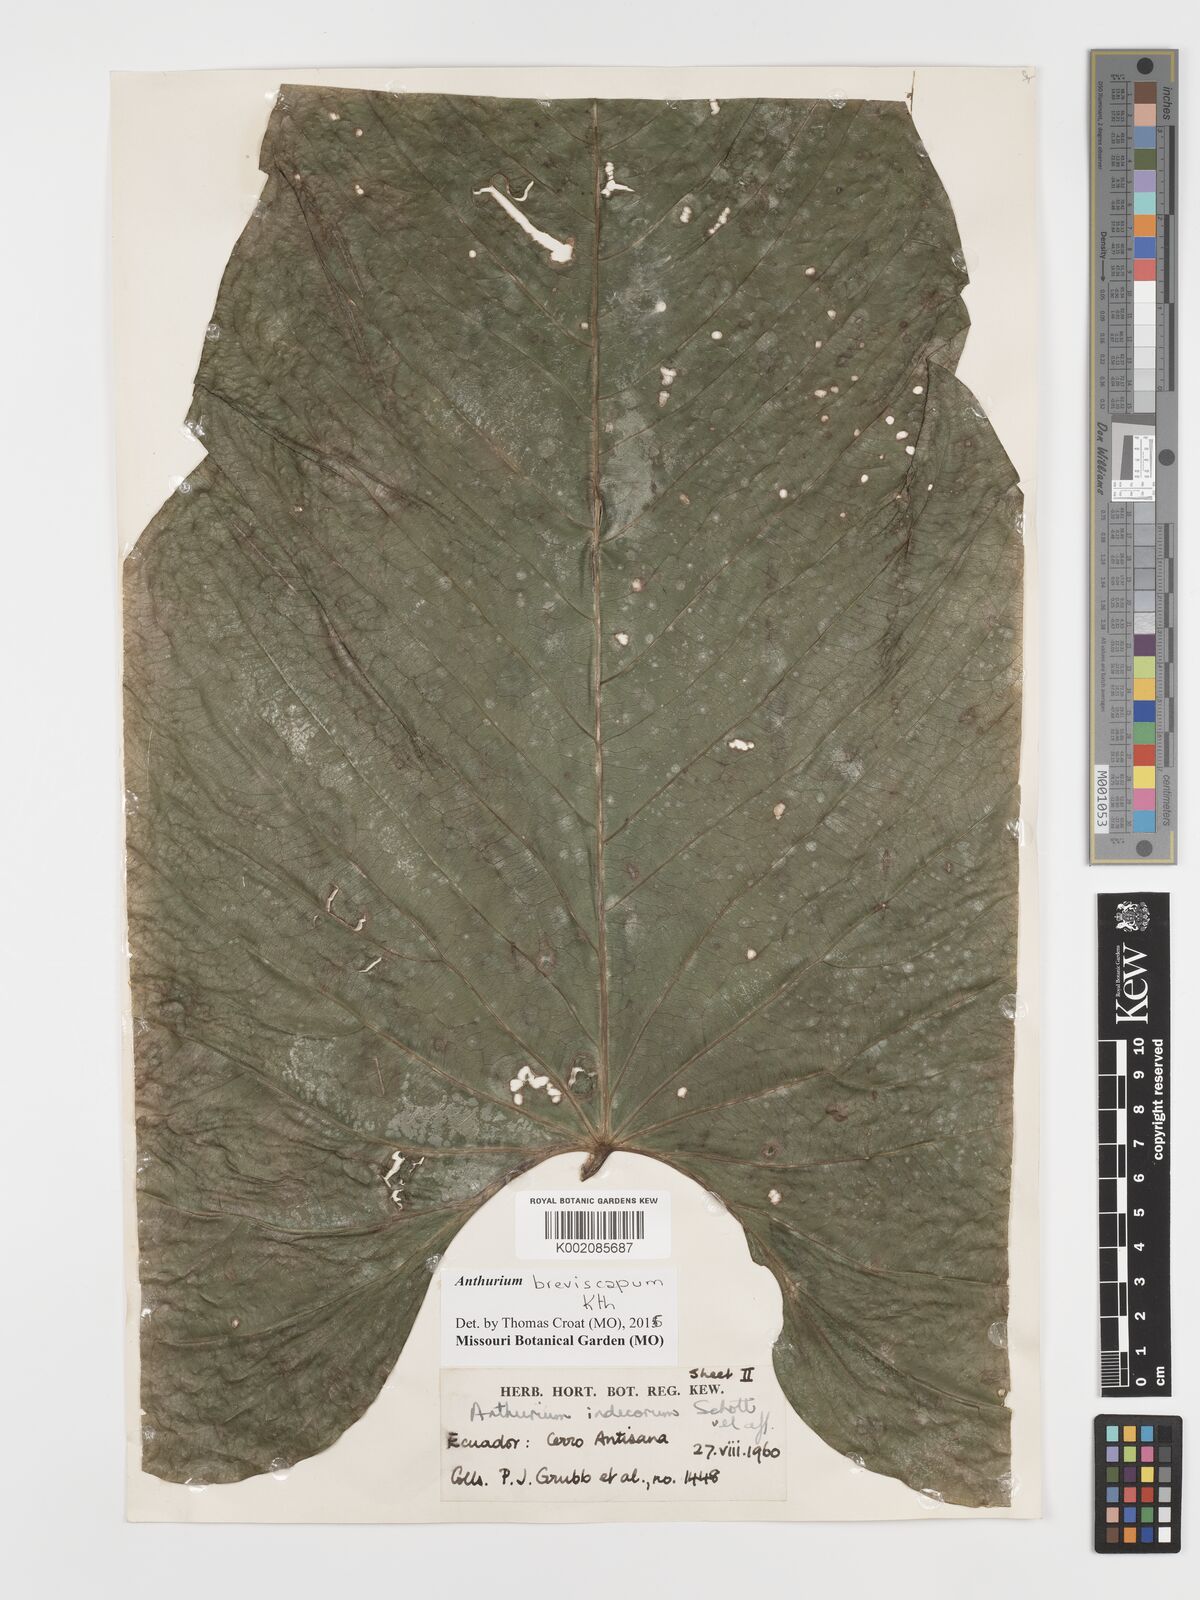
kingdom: Plantae
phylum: Tracheophyta
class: Liliopsida
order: Alismatales
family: Araceae
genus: Anthurium
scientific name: Anthurium breviscapum
